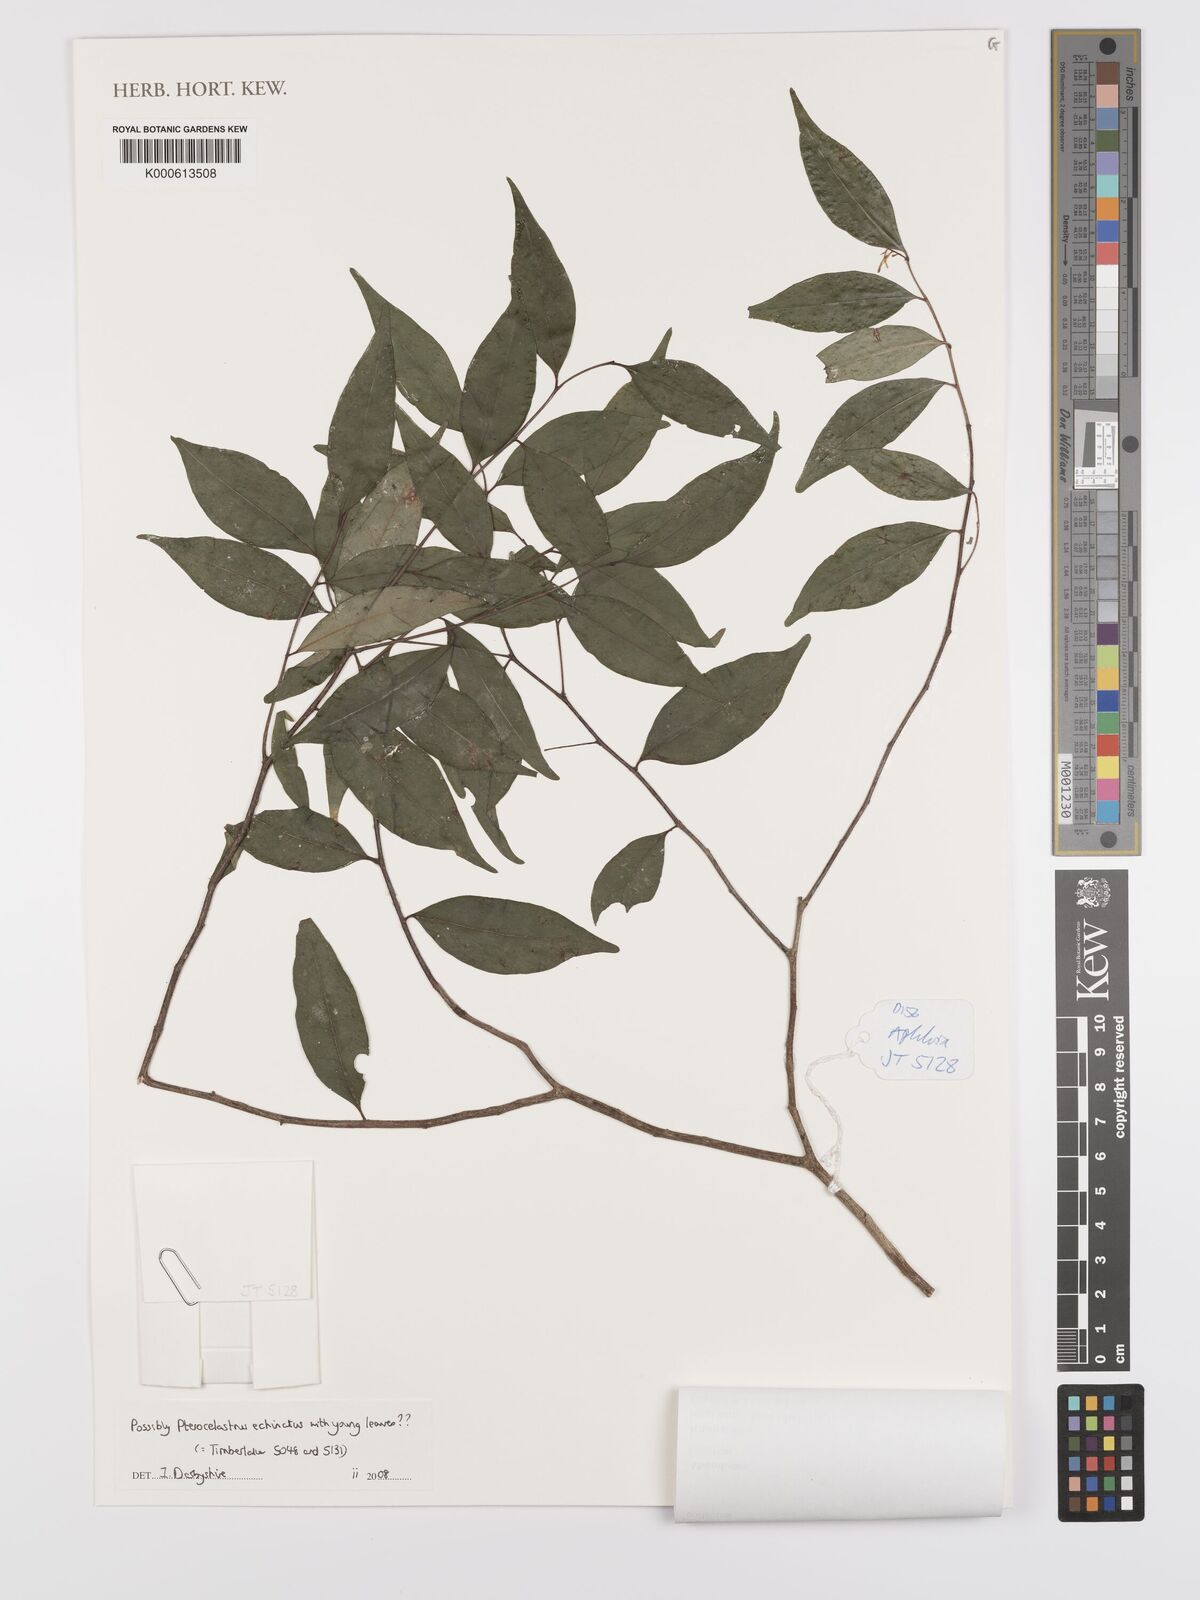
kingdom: Plantae
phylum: Tracheophyta
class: Magnoliopsida
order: Celastrales
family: Celastraceae
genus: Pterocelastrus
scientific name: Pterocelastrus
